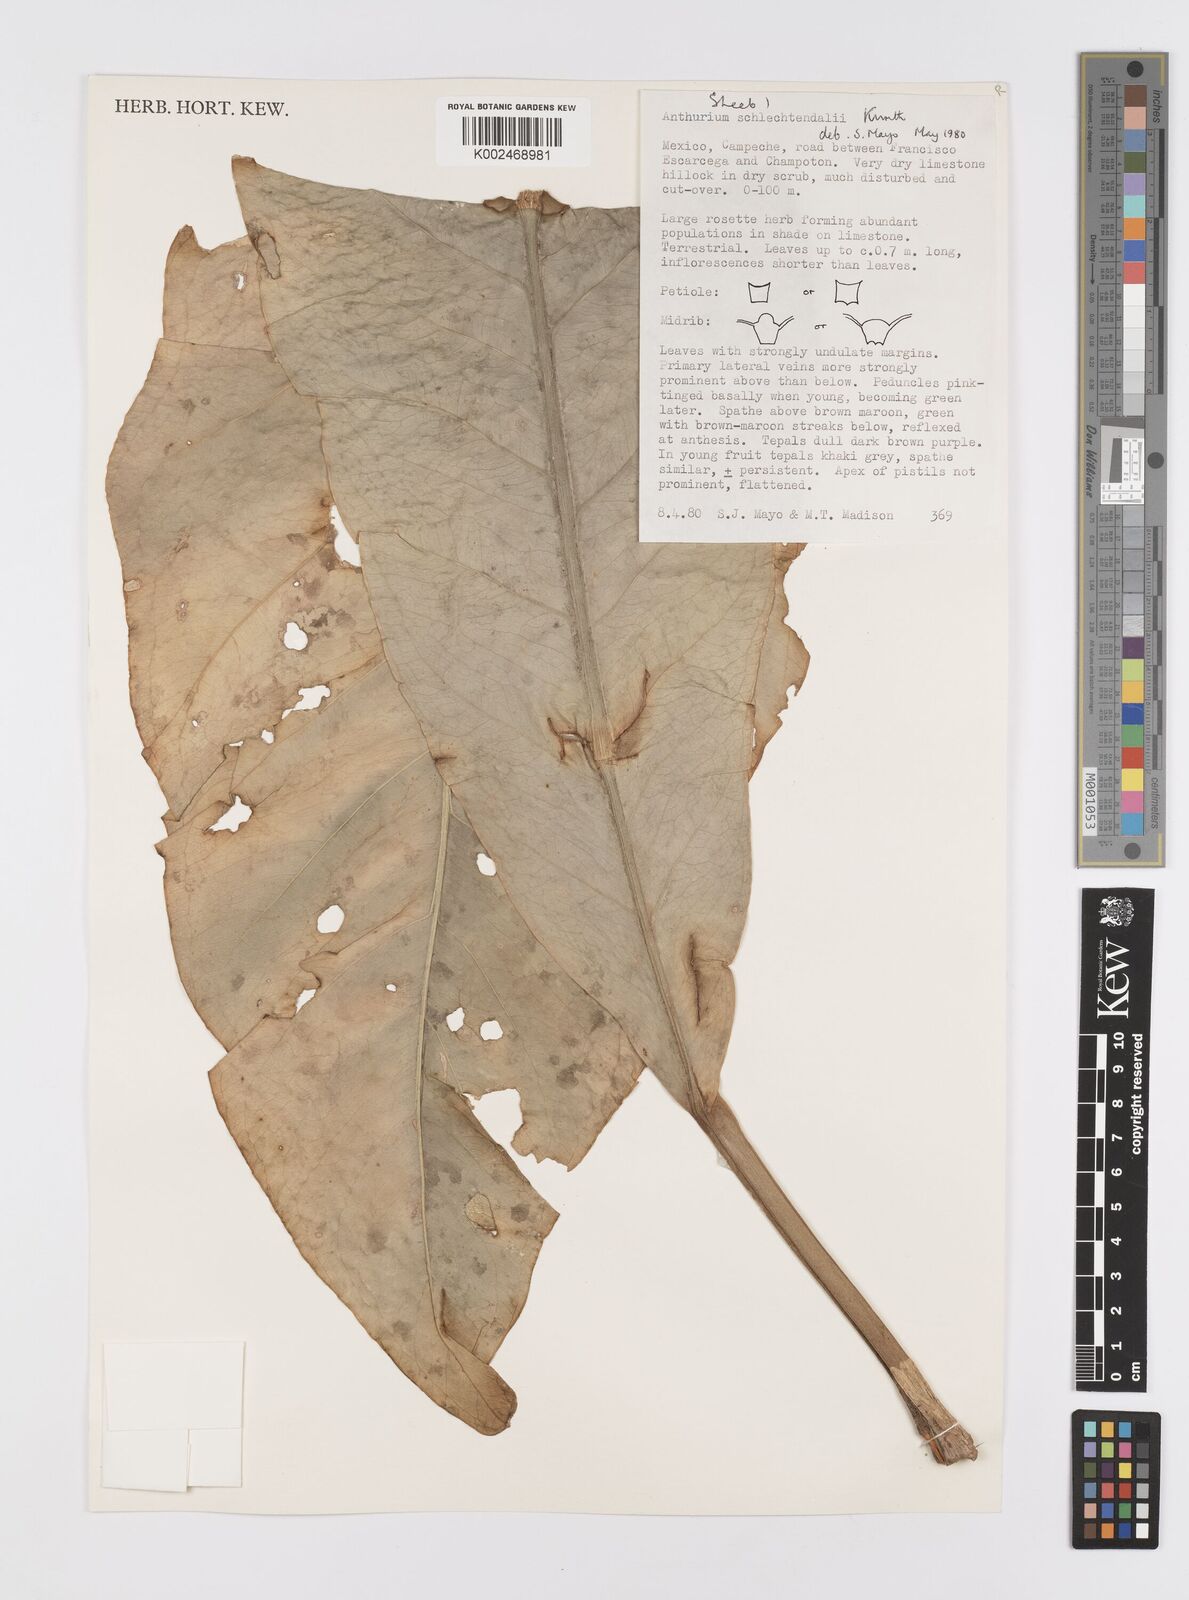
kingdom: Plantae
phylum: Tracheophyta
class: Liliopsida
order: Alismatales
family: Araceae
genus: Anthurium
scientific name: Anthurium schlechtendalii
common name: Laceleaf
